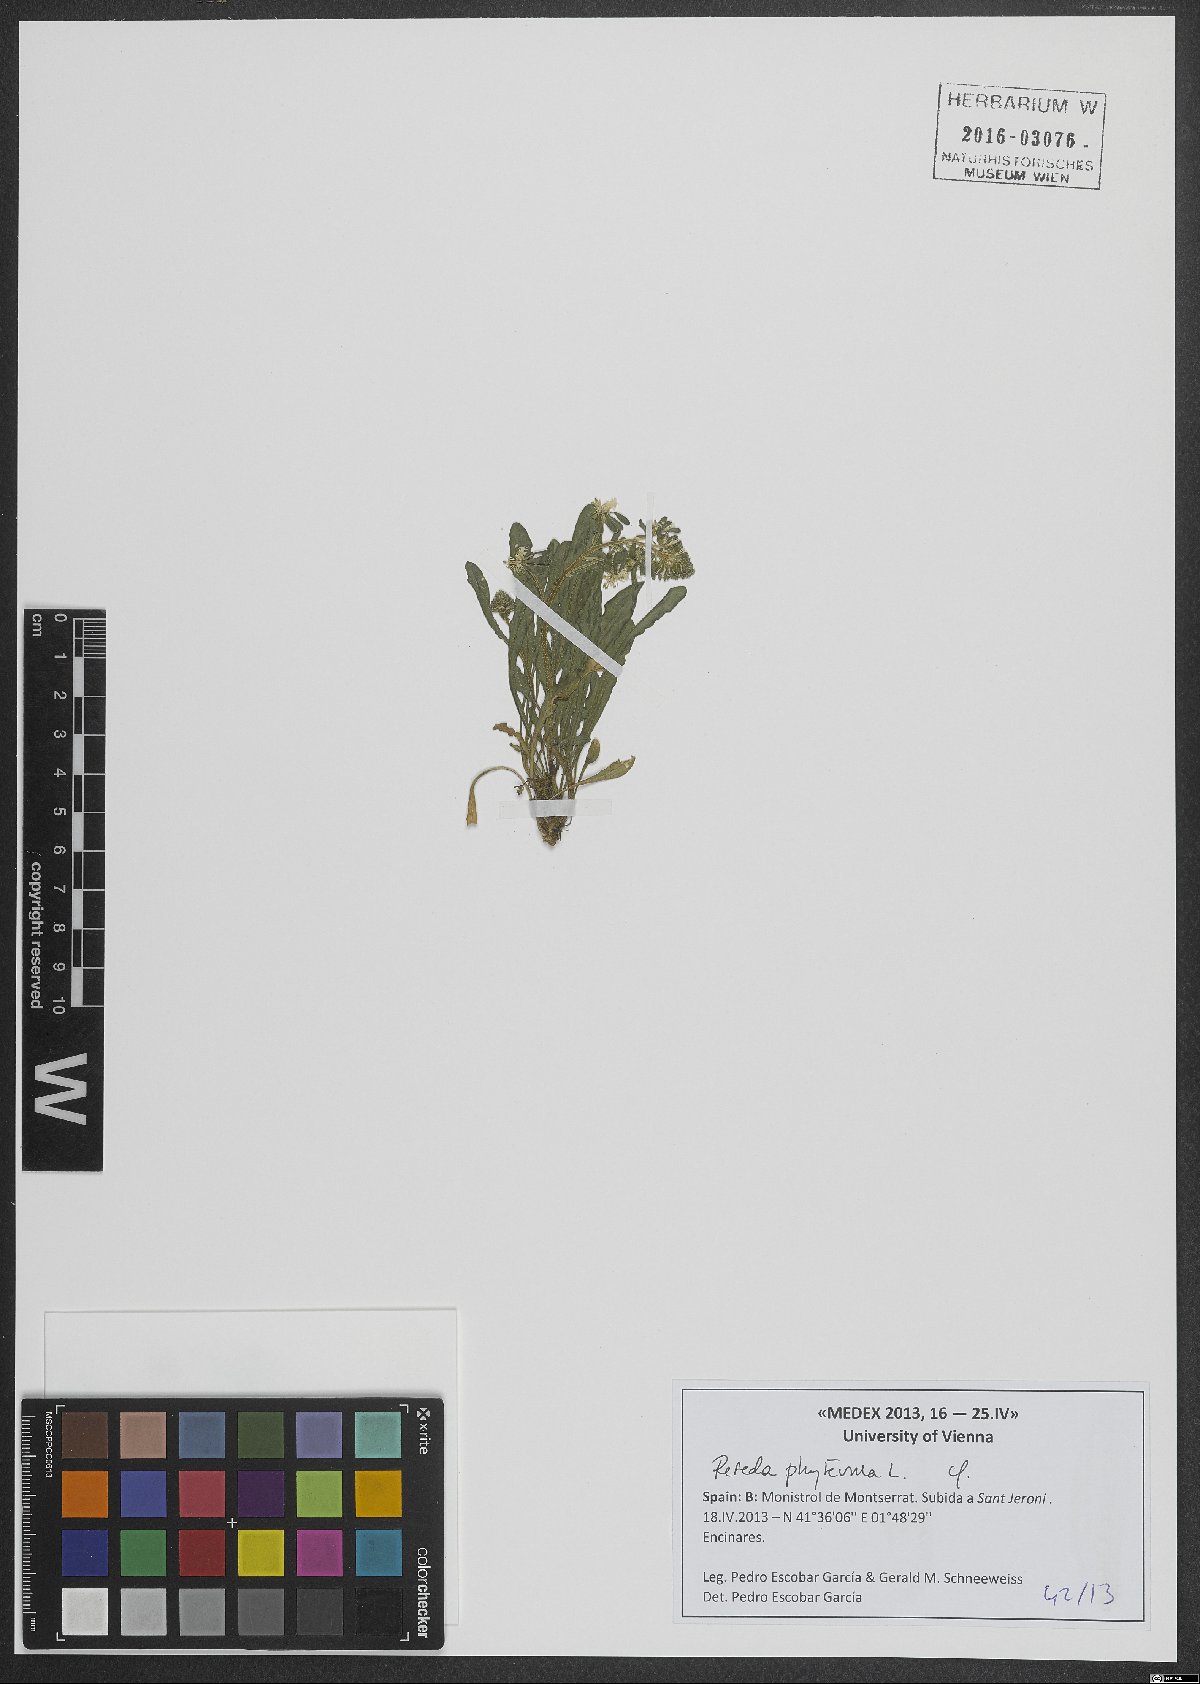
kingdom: Plantae
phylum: Tracheophyta
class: Magnoliopsida
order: Brassicales
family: Resedaceae
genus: Reseda
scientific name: Reseda phyteuma
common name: Corn mignonette
